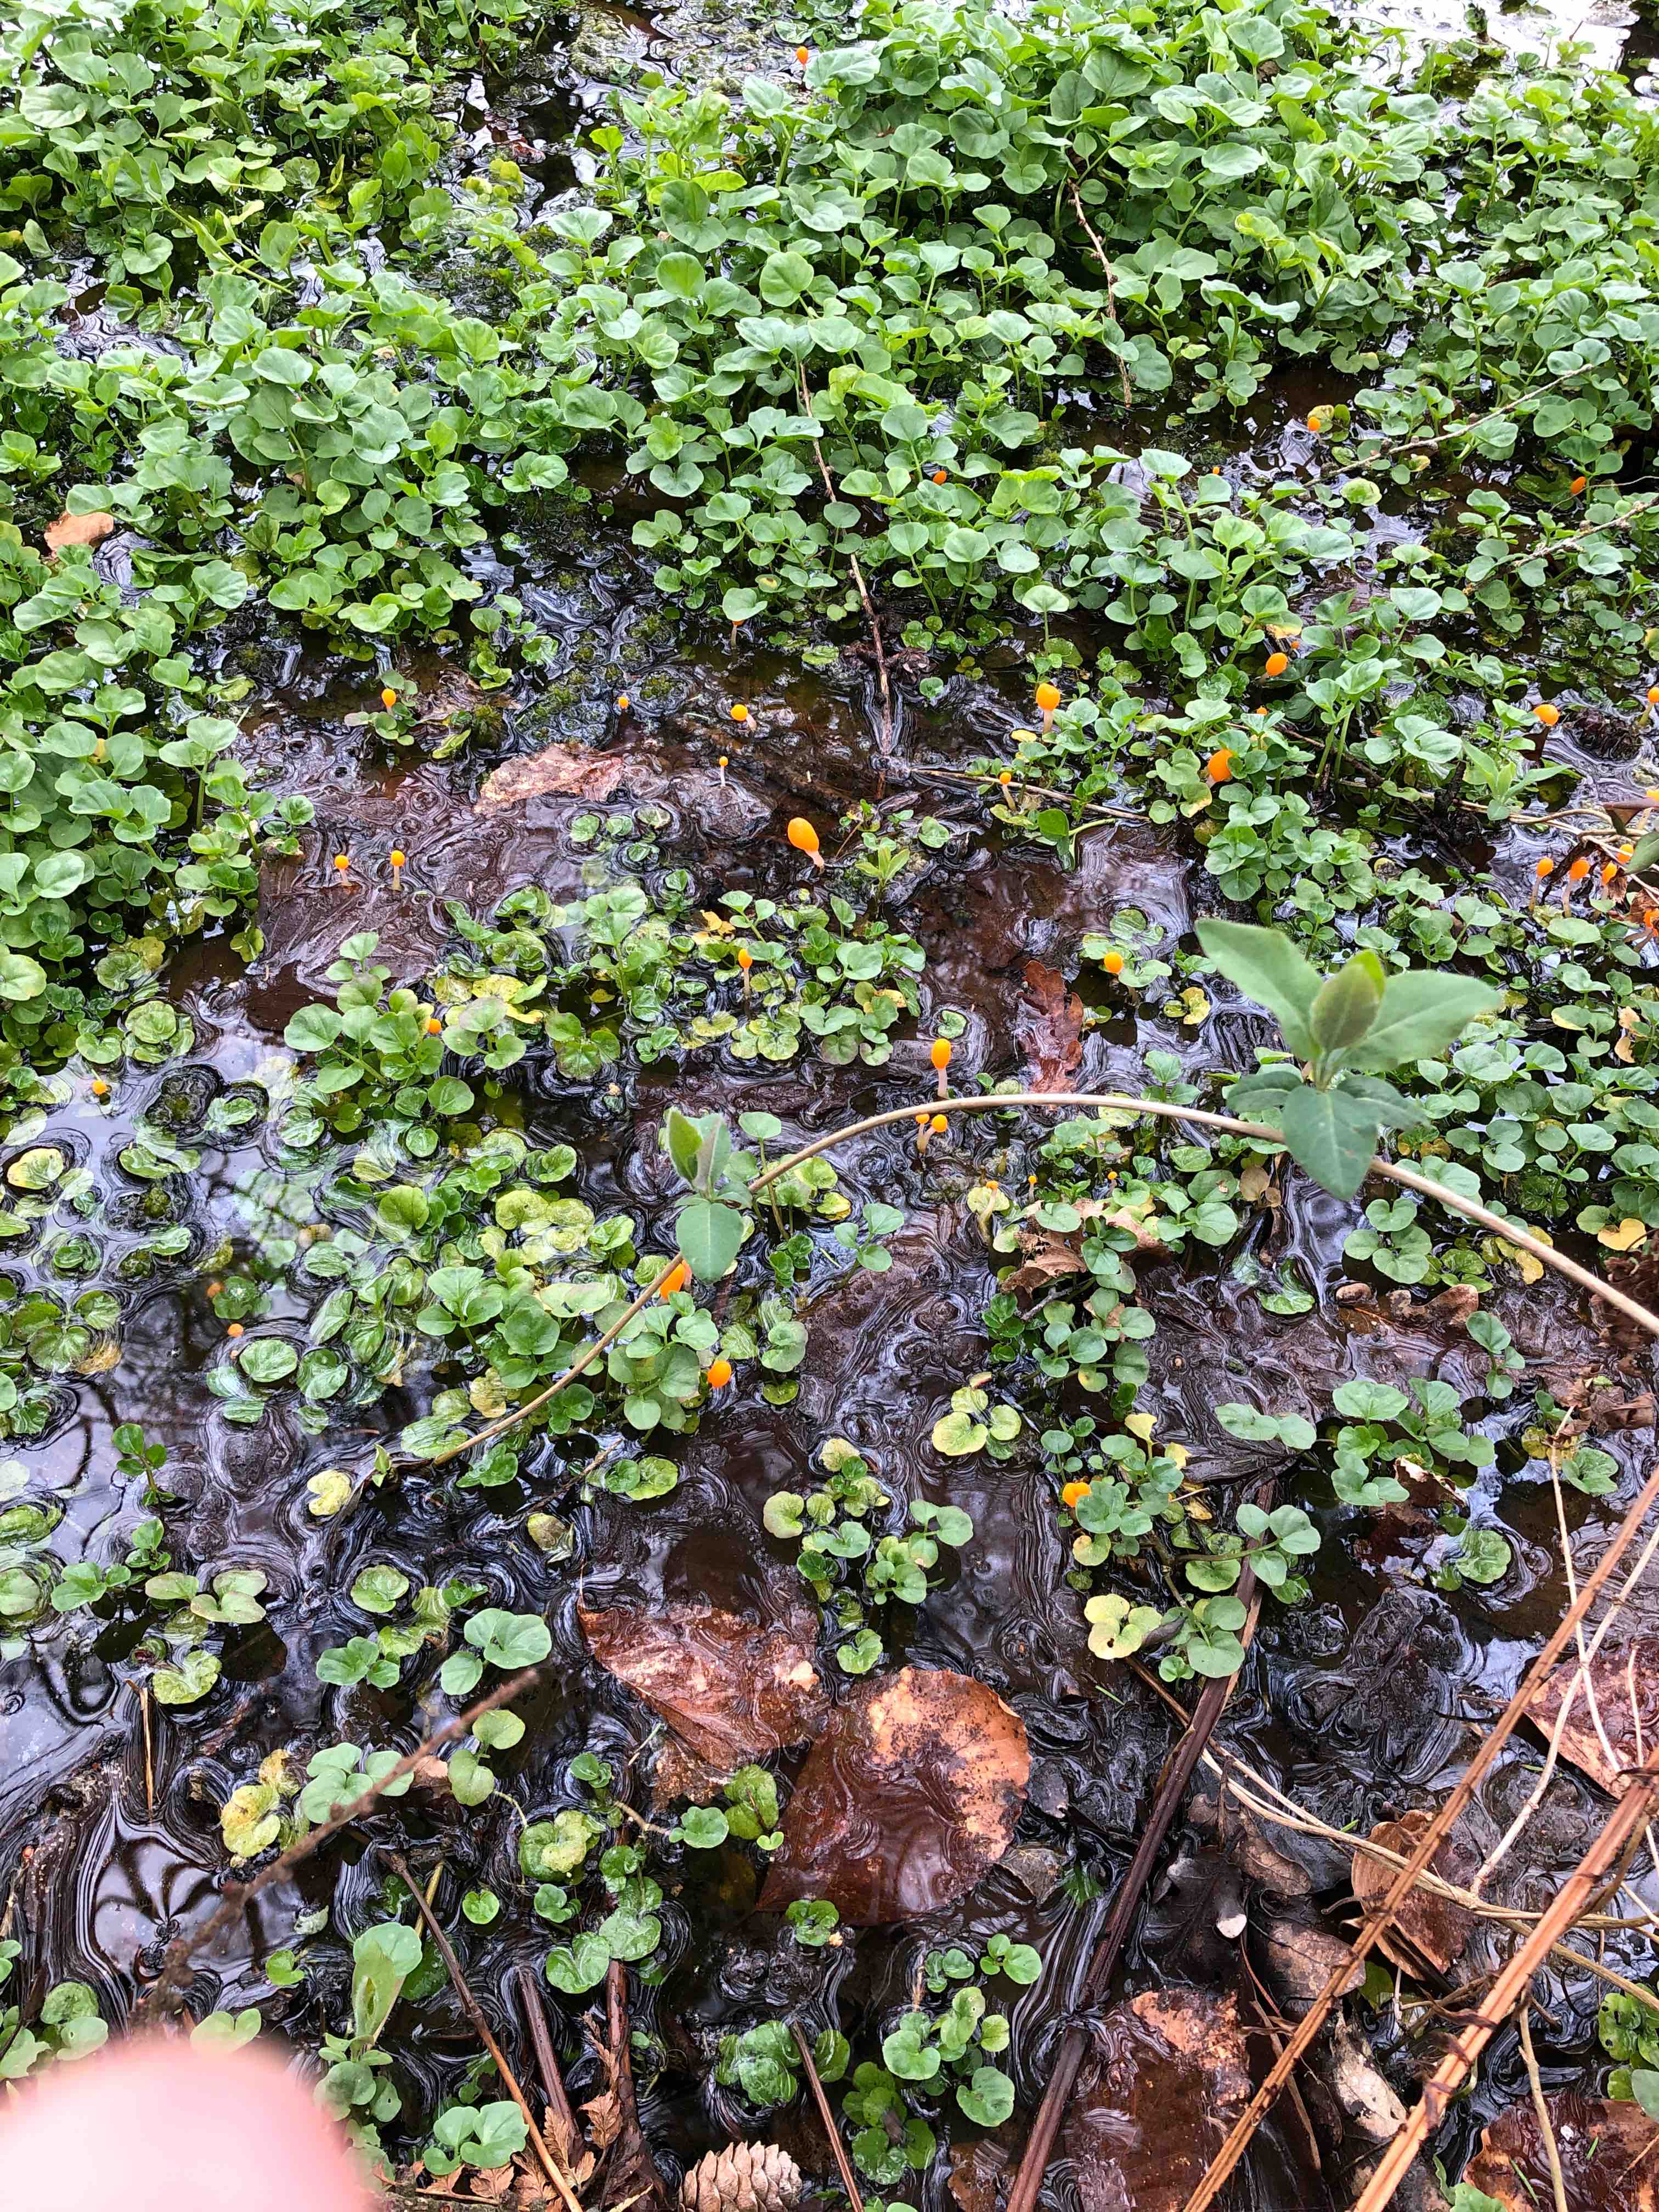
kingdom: Fungi
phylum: Ascomycota
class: Leotiomycetes
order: Helotiales
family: Cenangiaceae
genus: Mitrula
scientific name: Mitrula paludosa
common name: gul nøkketunge
